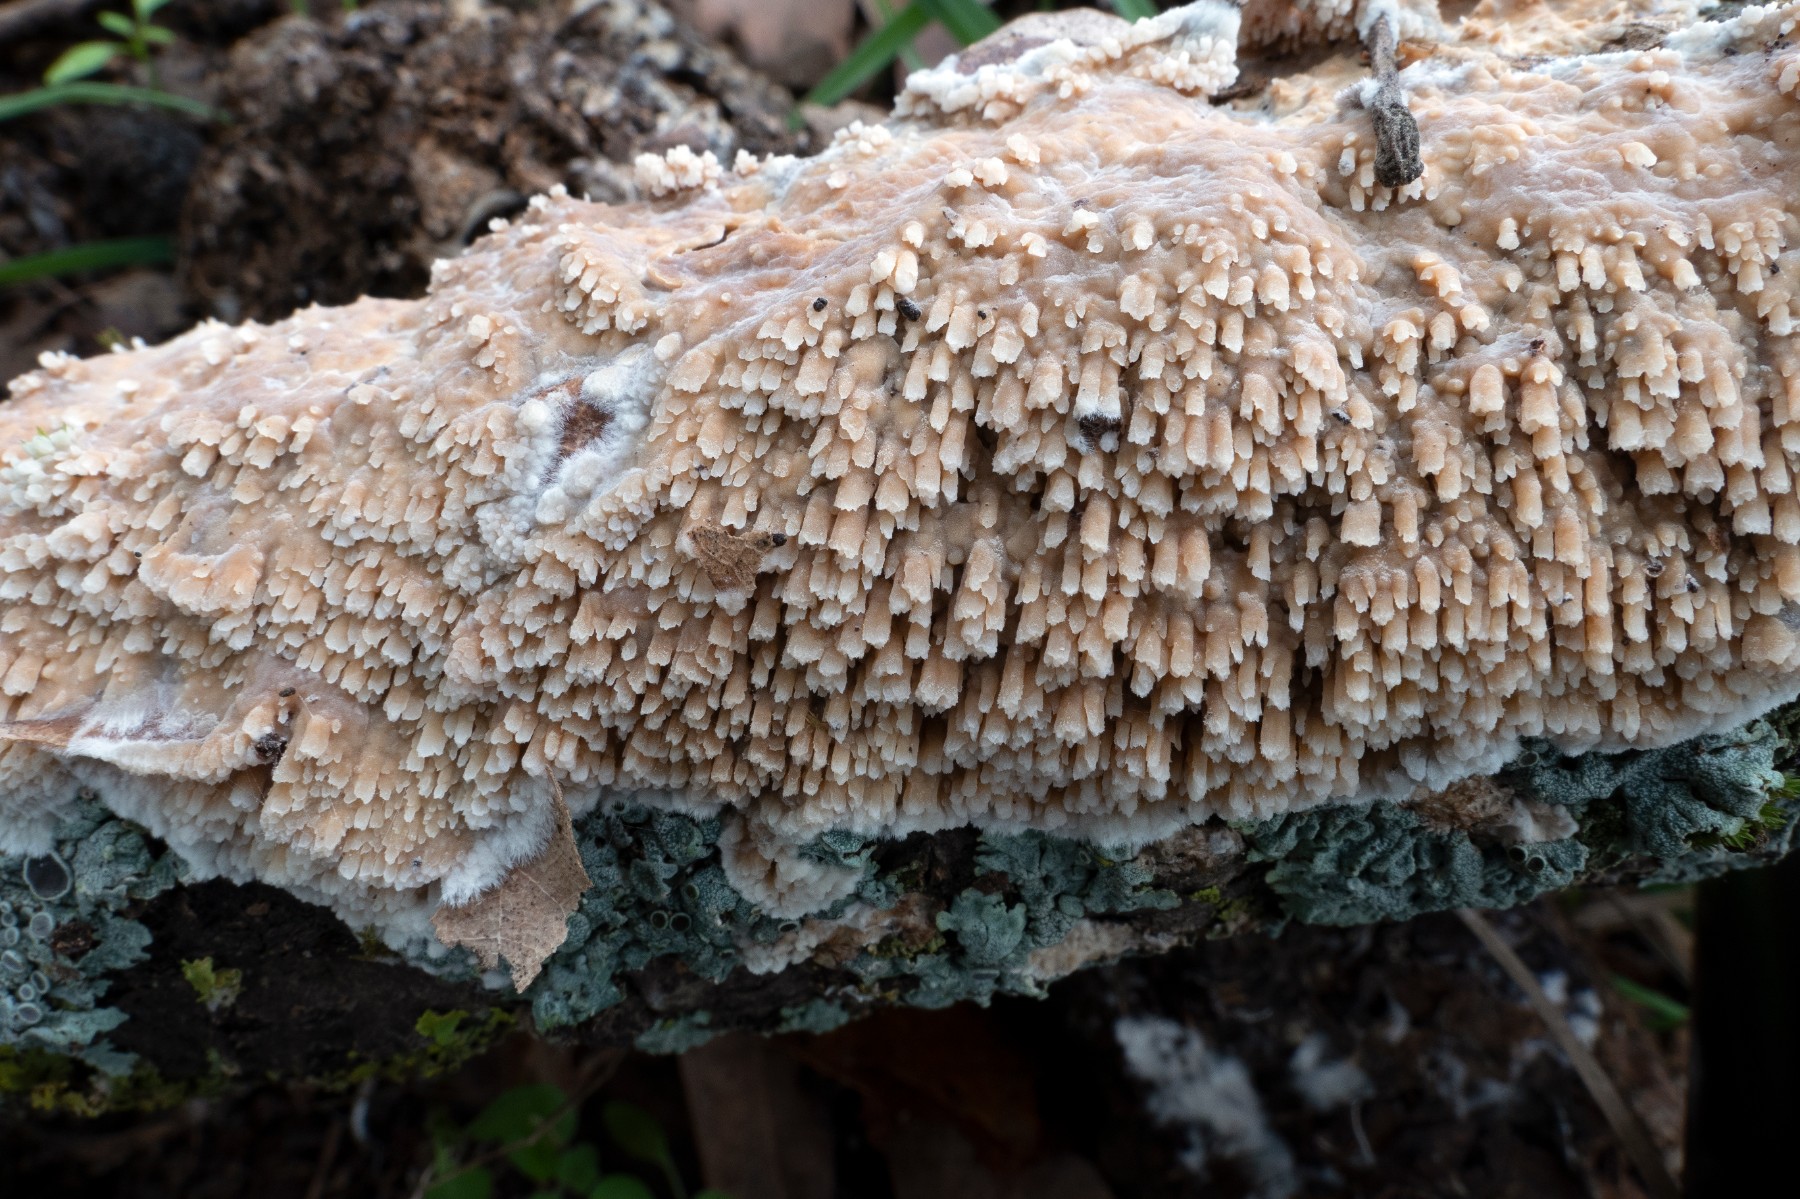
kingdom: Fungi
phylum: Basidiomycota
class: Agaricomycetes
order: Agaricales
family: Radulomycetaceae
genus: Radulomyces
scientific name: Radulomyces molaris
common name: tandet naftalinskind
